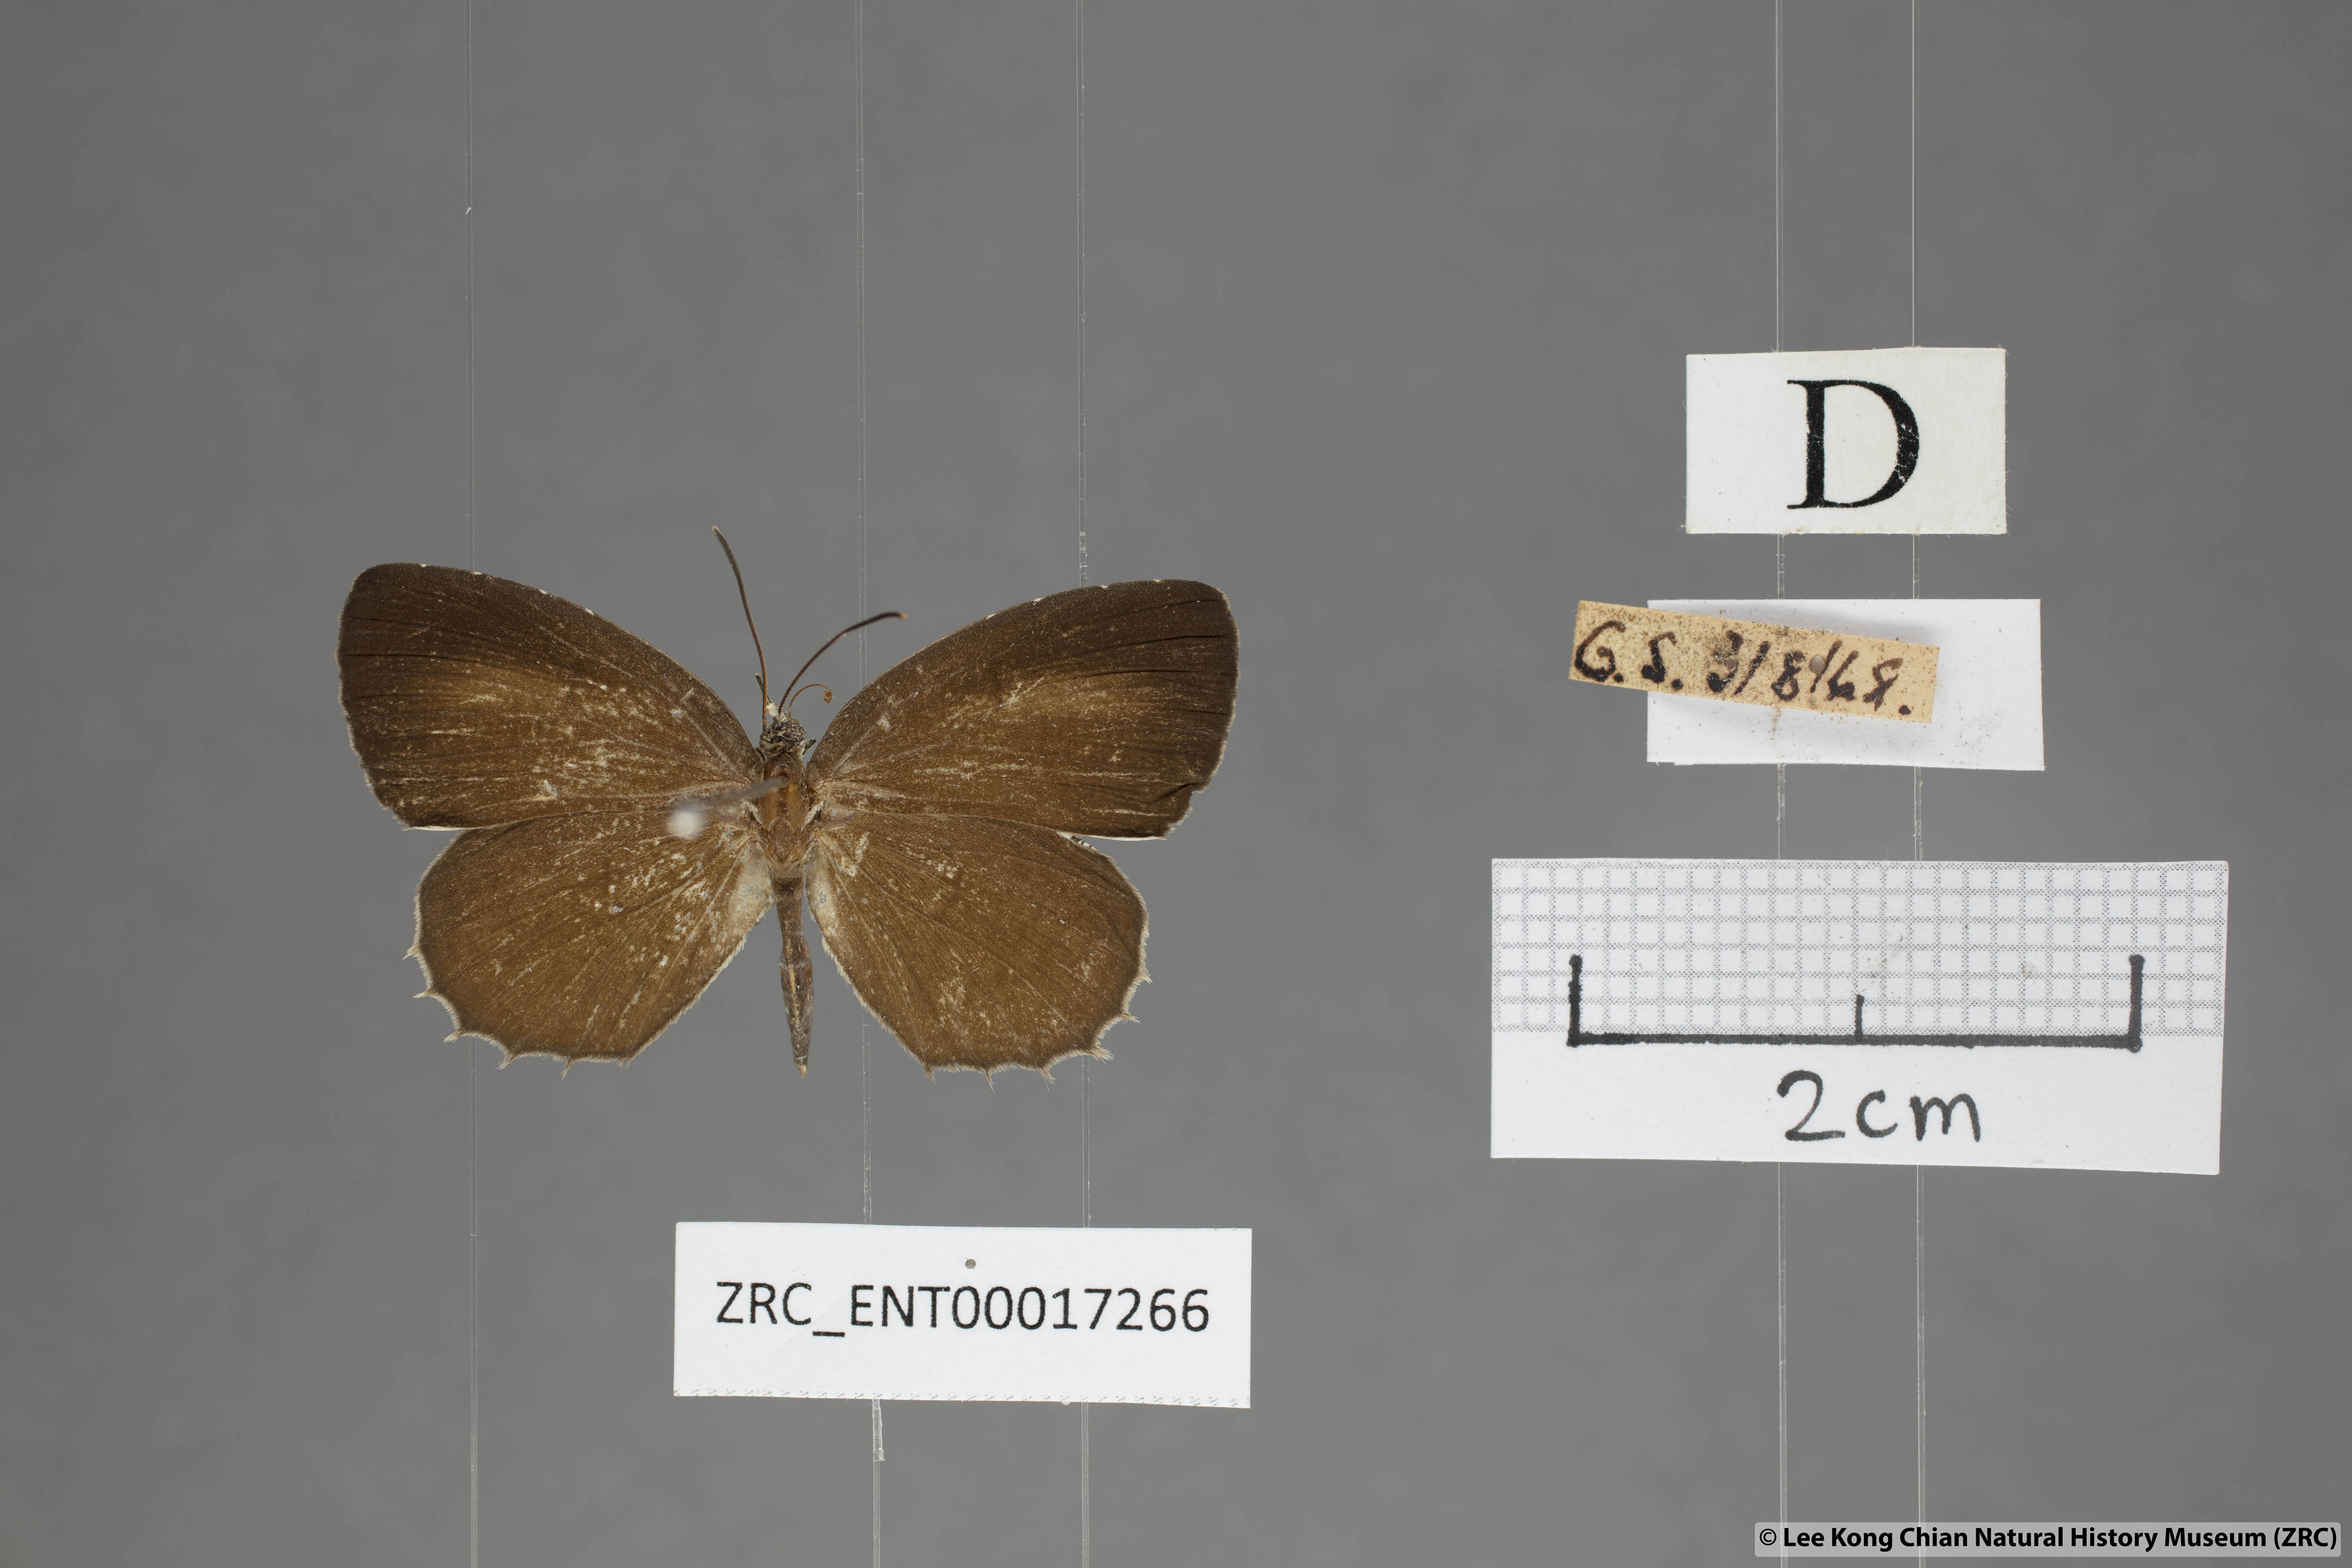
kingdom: Animalia
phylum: Arthropoda
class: Insecta
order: Lepidoptera
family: Lycaenidae
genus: Allotinus
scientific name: Allotinus leogoron
